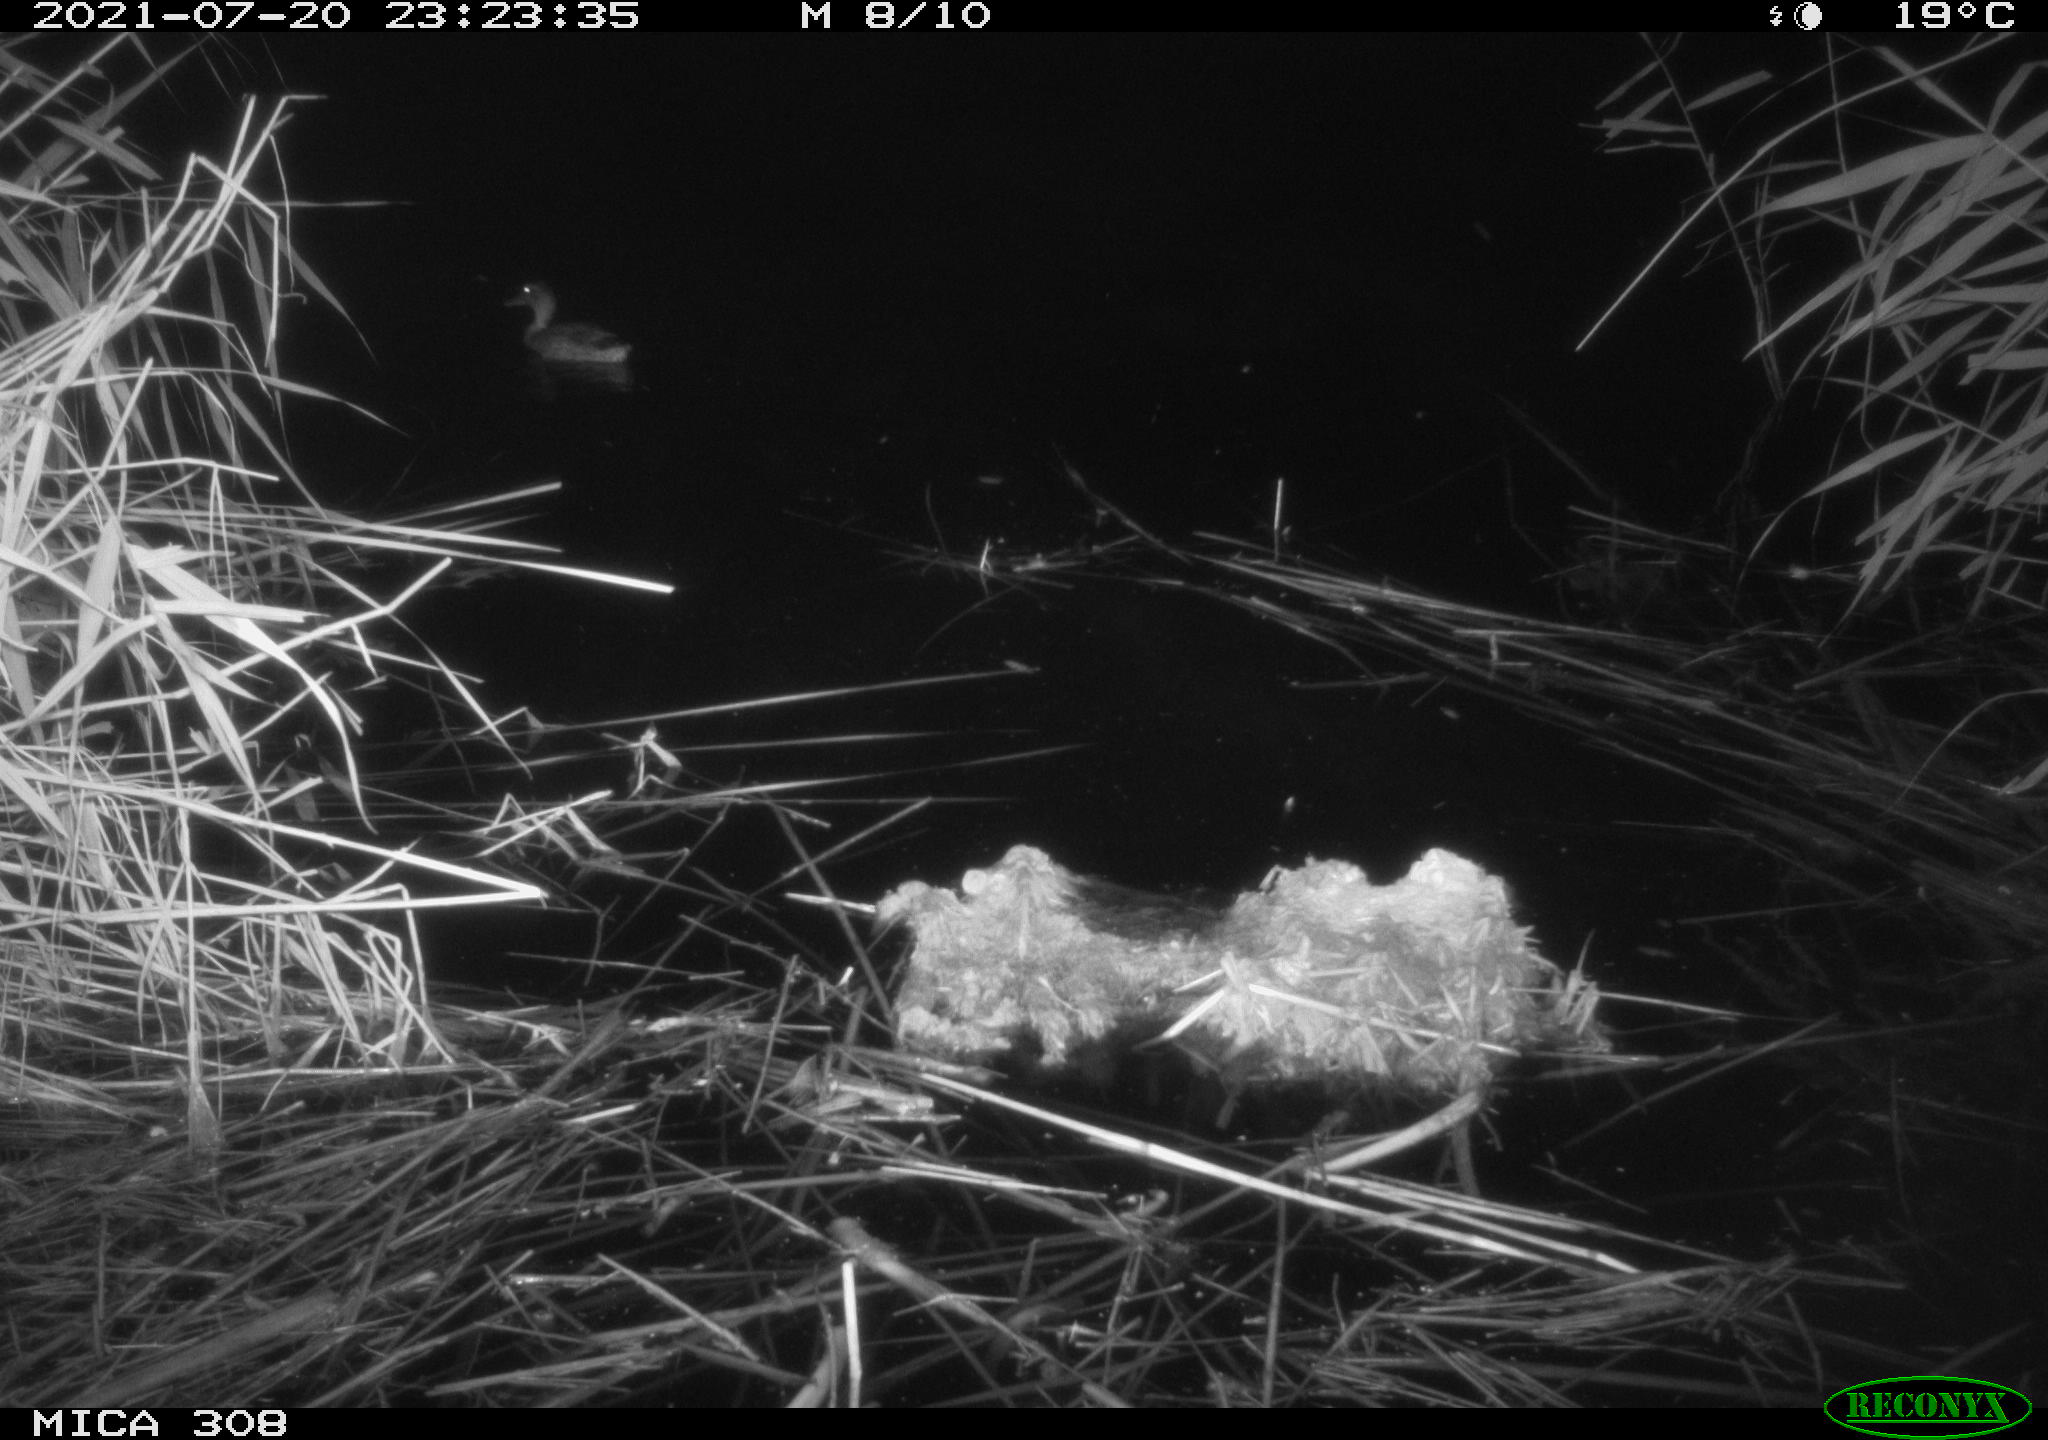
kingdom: Animalia
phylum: Chordata
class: Aves
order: Anseriformes
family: Anatidae
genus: Anas
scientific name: Anas platyrhynchos
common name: Mallard
